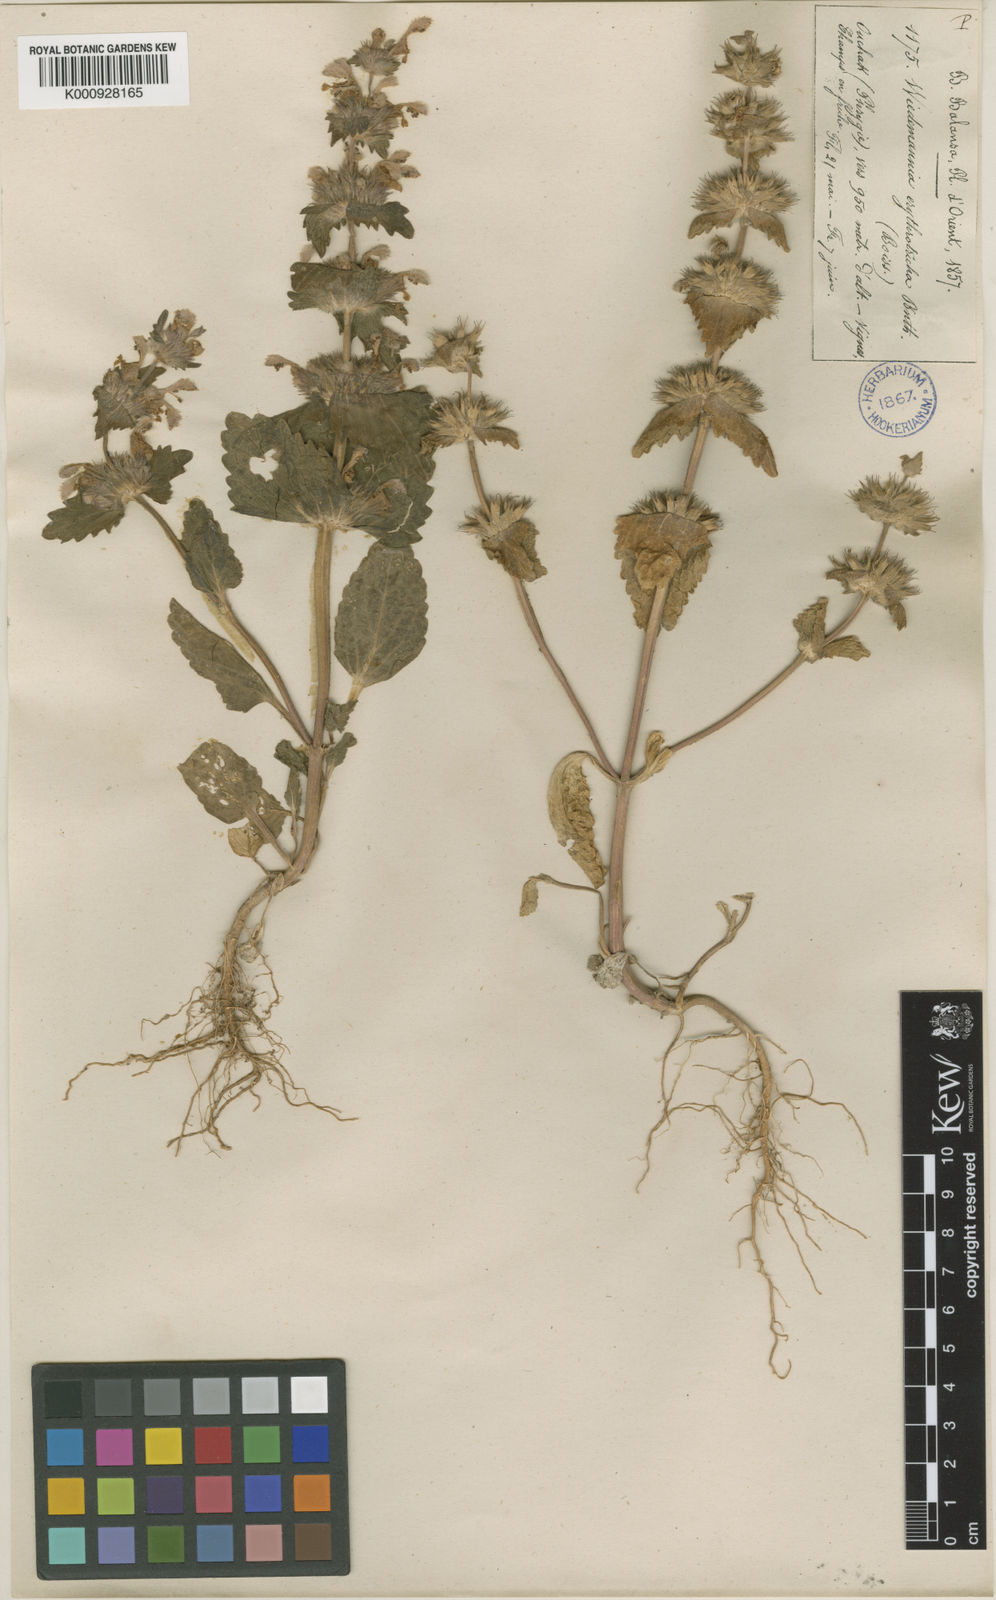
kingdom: Plantae
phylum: Tracheophyta
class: Magnoliopsida
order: Lamiales
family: Lamiaceae
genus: Lamium
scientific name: Lamium orientale
